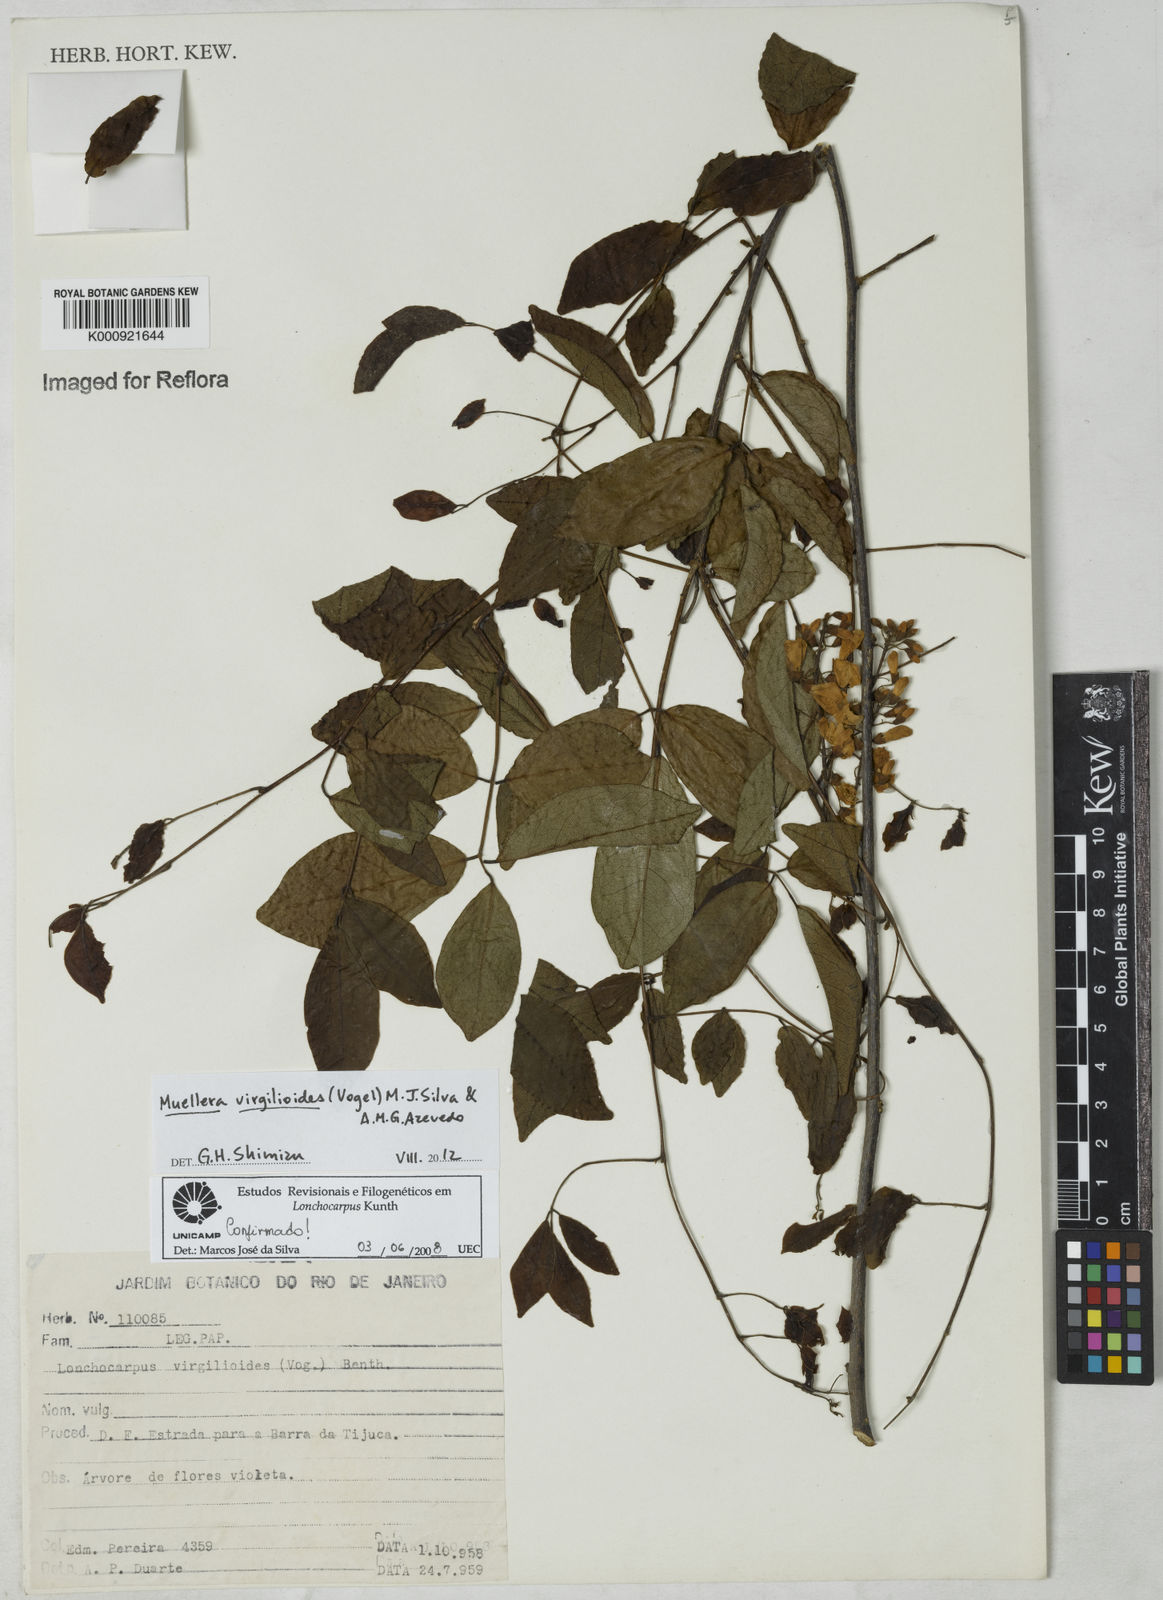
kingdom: Plantae
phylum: Tracheophyta
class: Magnoliopsida
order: Fabales
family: Fabaceae
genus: Muellera
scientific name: Muellera virgilioides
